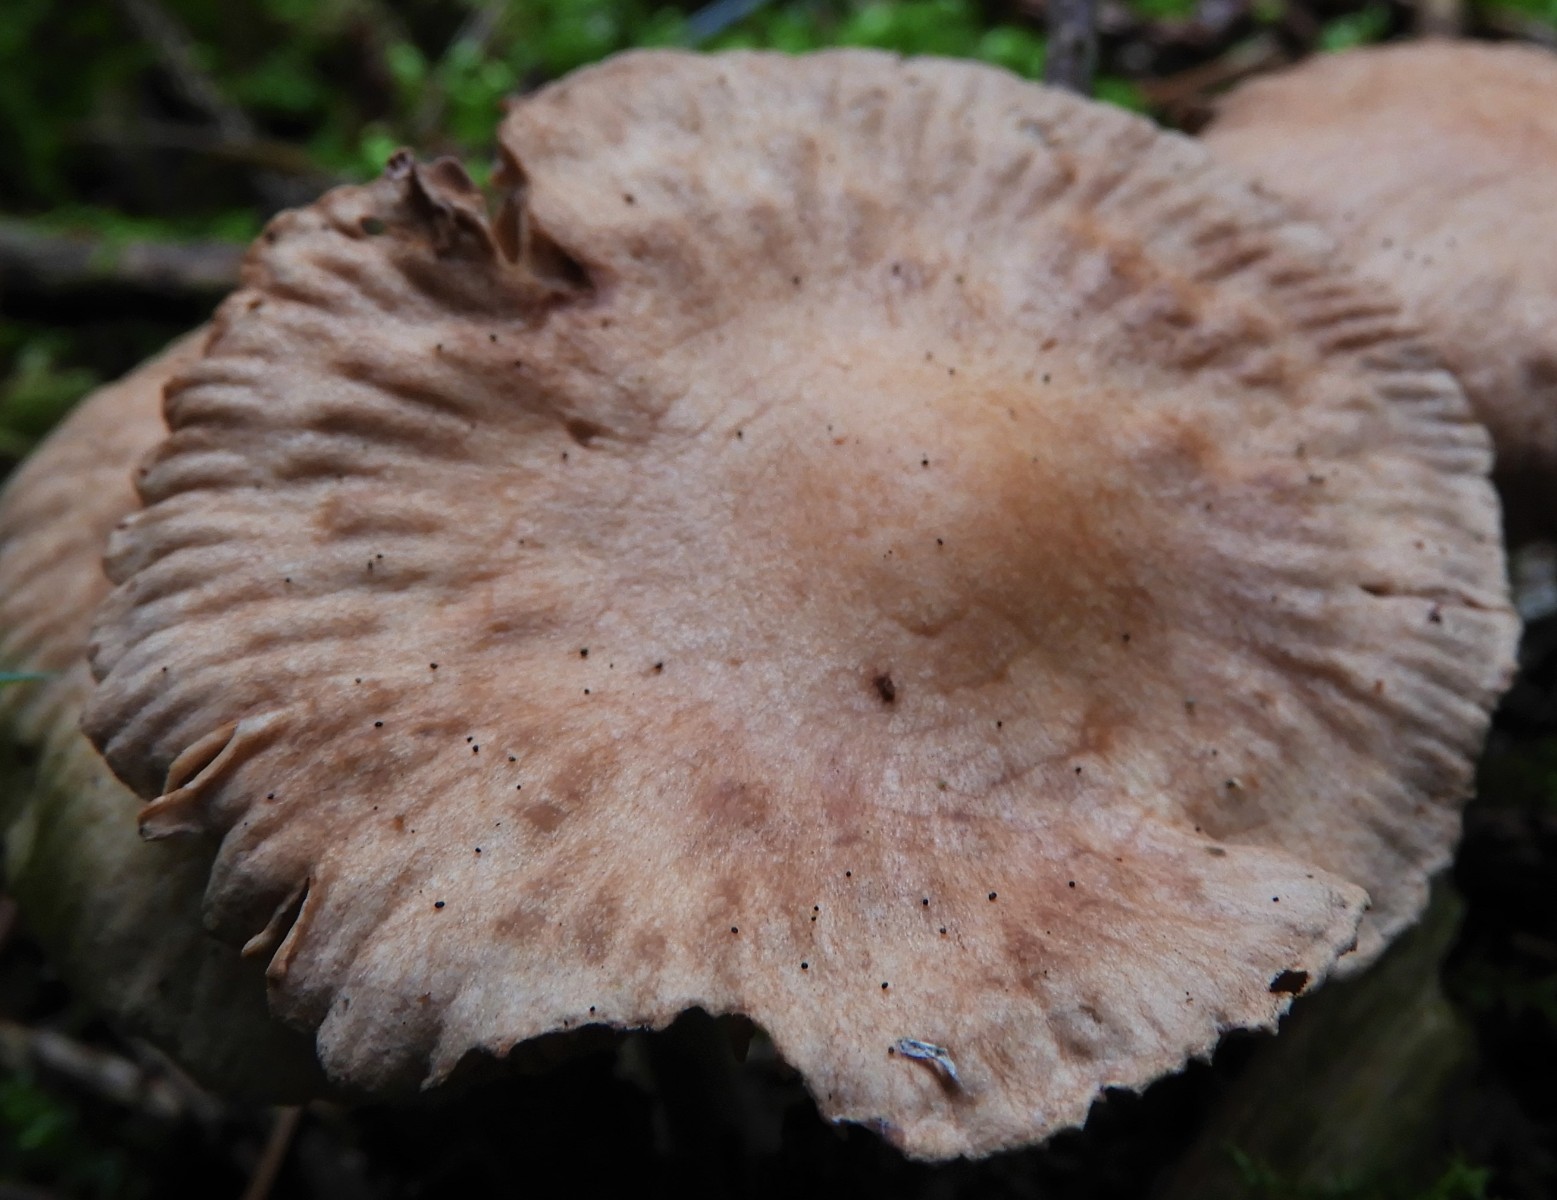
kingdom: Fungi
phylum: Basidiomycota
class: Agaricomycetes
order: Agaricales
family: Omphalotaceae
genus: Collybiopsis
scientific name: Collybiopsis peronata
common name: bestøvlet fladhat
